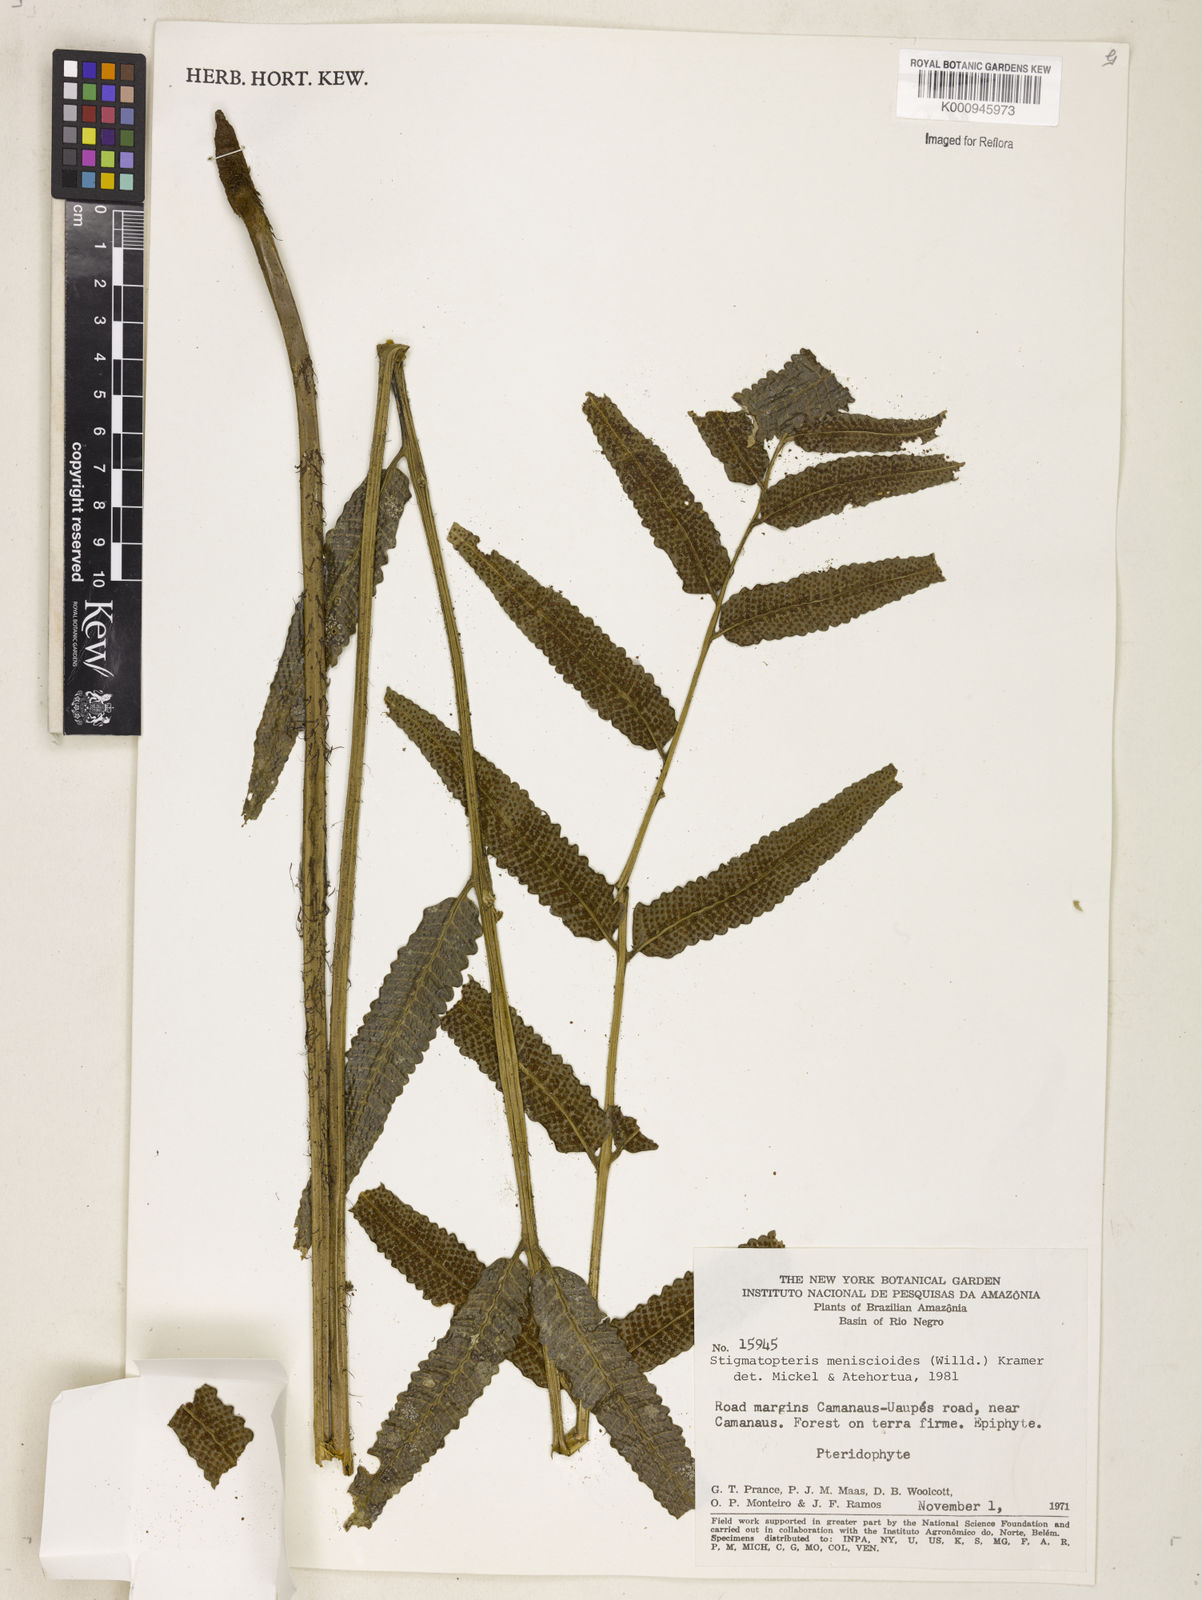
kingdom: Plantae
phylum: Tracheophyta
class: Polypodiopsida
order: Polypodiales
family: Dryopteridaceae
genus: Cyclodium
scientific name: Cyclodium meniscioides
